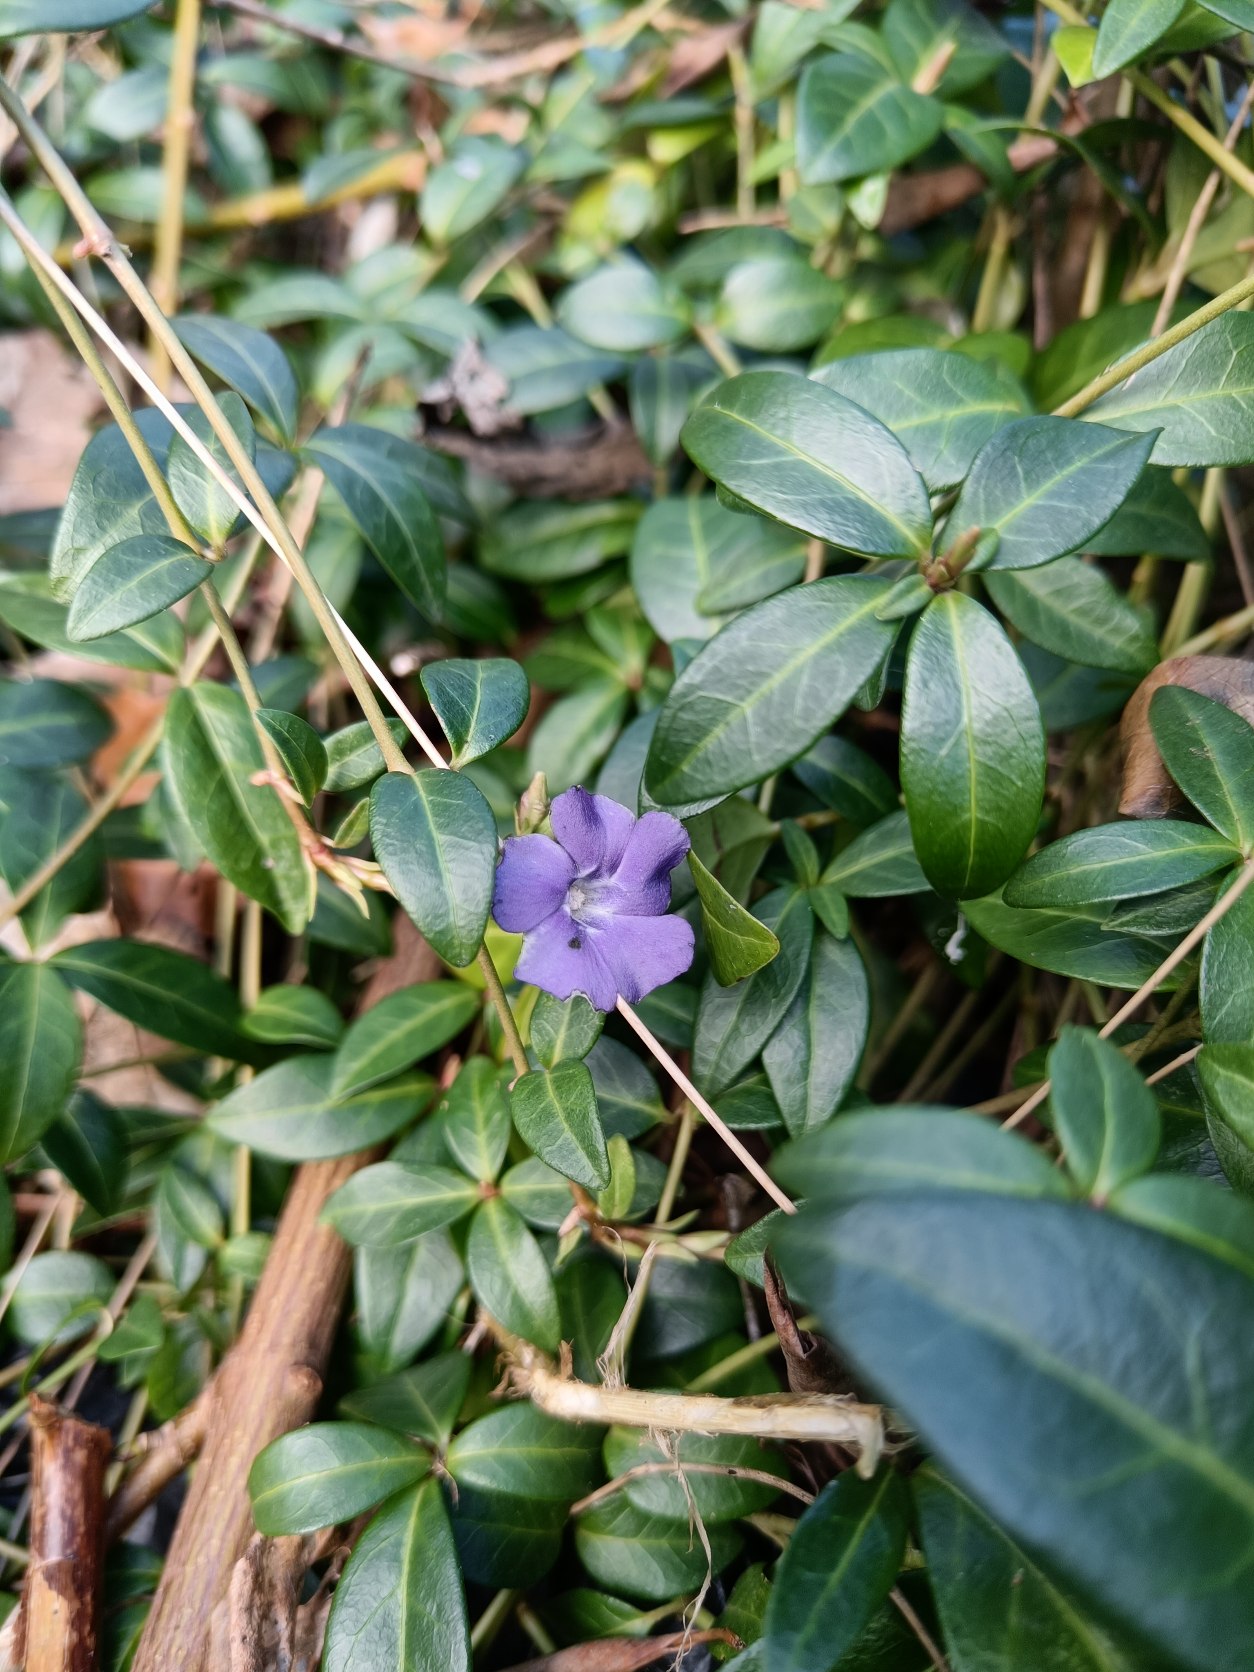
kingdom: Plantae
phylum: Tracheophyta
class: Magnoliopsida
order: Gentianales
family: Apocynaceae
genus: Vinca
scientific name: Vinca minor
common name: Liden singrøn
